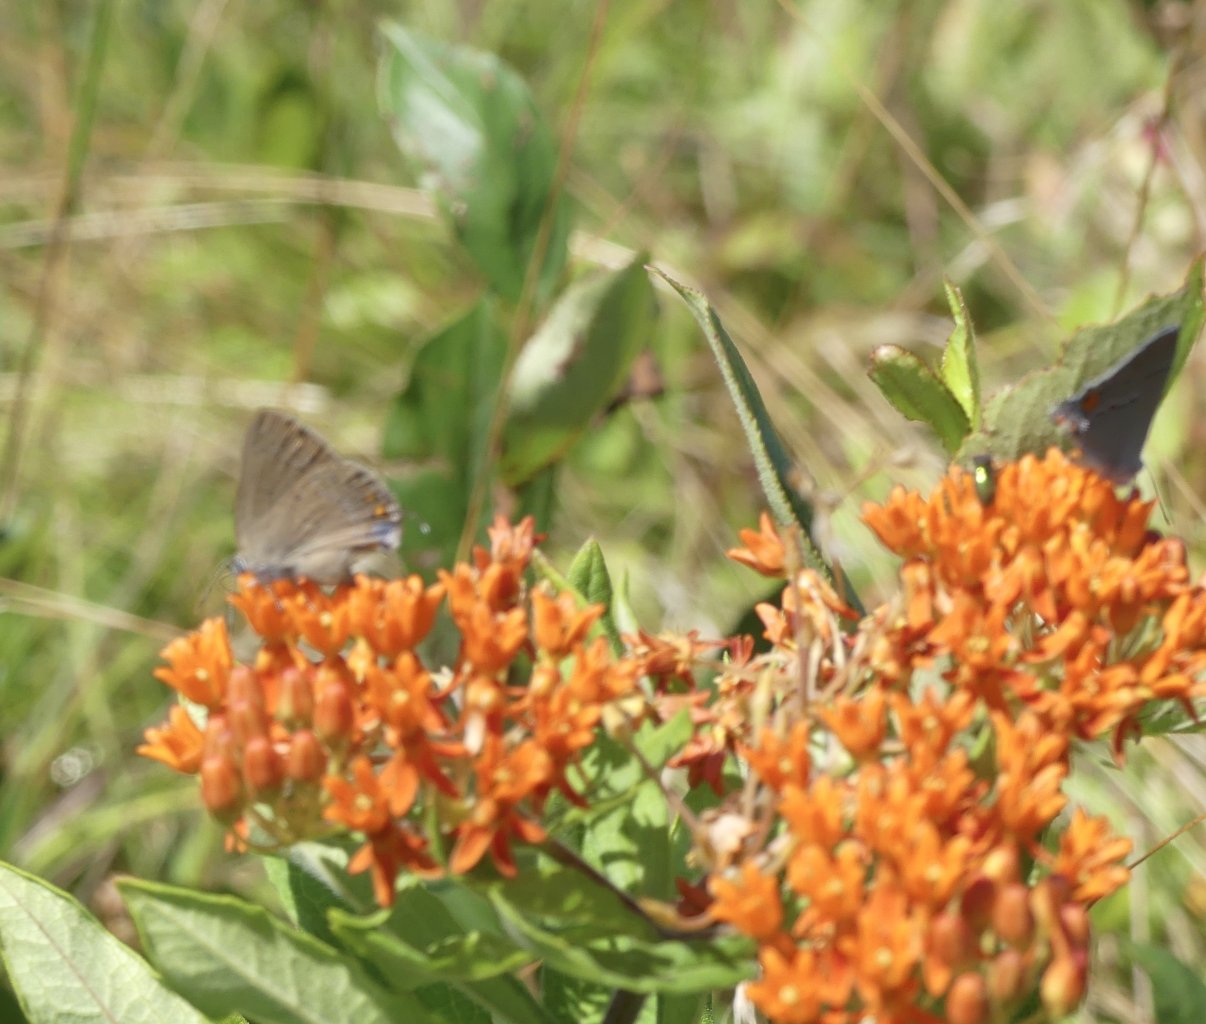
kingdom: Animalia
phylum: Arthropoda
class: Insecta
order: Lepidoptera
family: Lycaenidae
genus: Satyrium
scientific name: Satyrium edwardsii
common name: Edwards' Hairstreak
